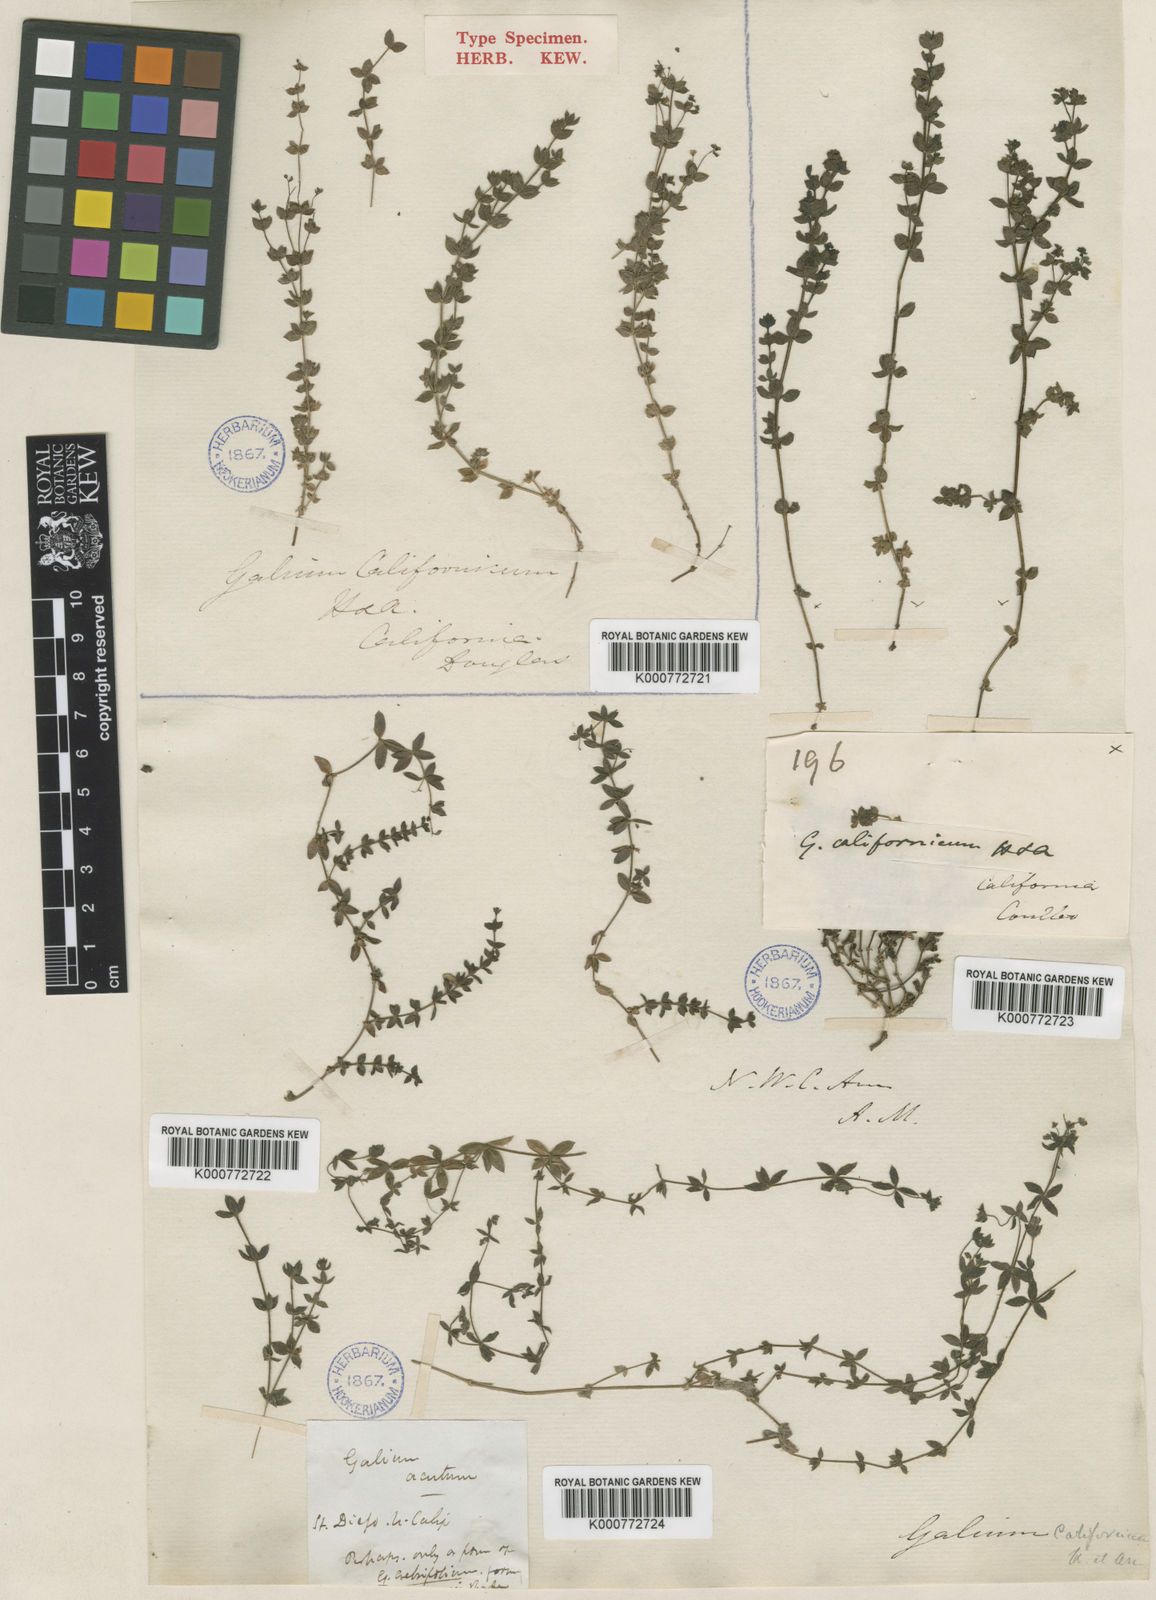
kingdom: Plantae
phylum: Tracheophyta
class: Magnoliopsida
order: Gentianales
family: Rubiaceae
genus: Galium
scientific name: Galium californicum
